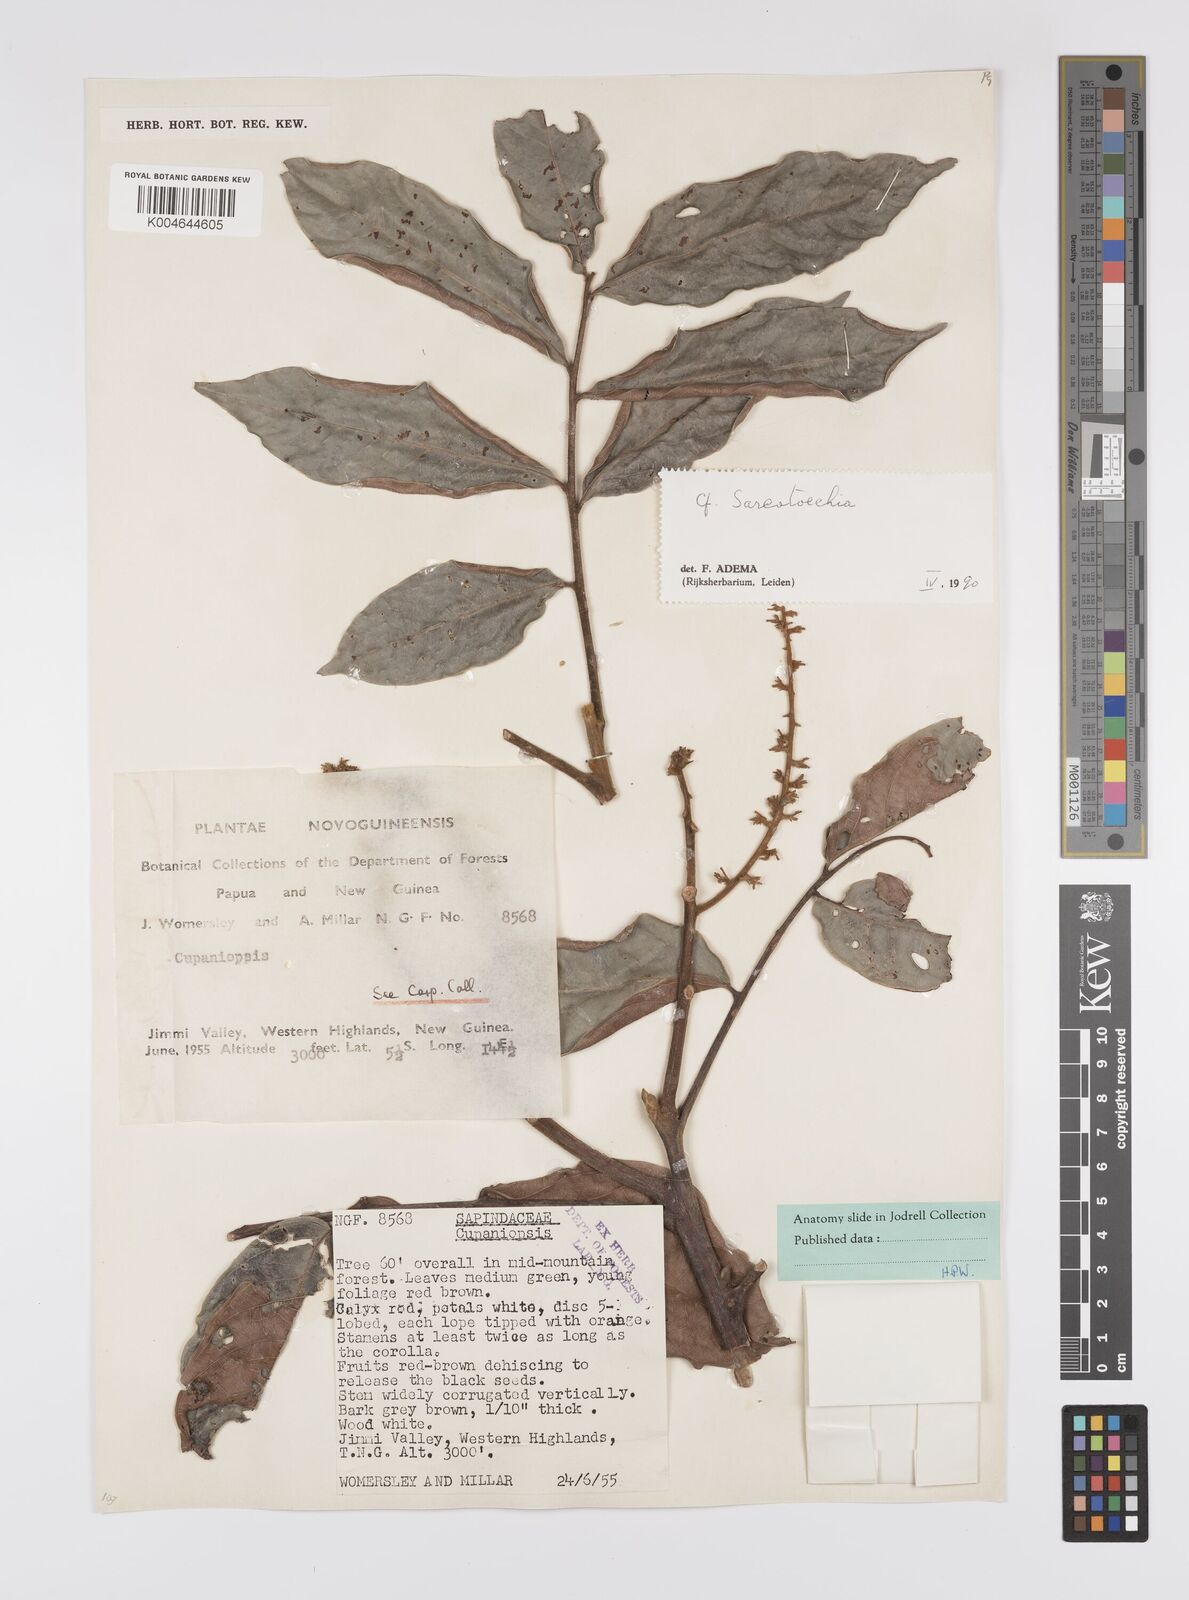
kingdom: Plantae
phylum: Tracheophyta
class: Magnoliopsida
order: Sapindales
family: Sapindaceae
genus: Sarcotoechia
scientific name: Sarcotoechia
